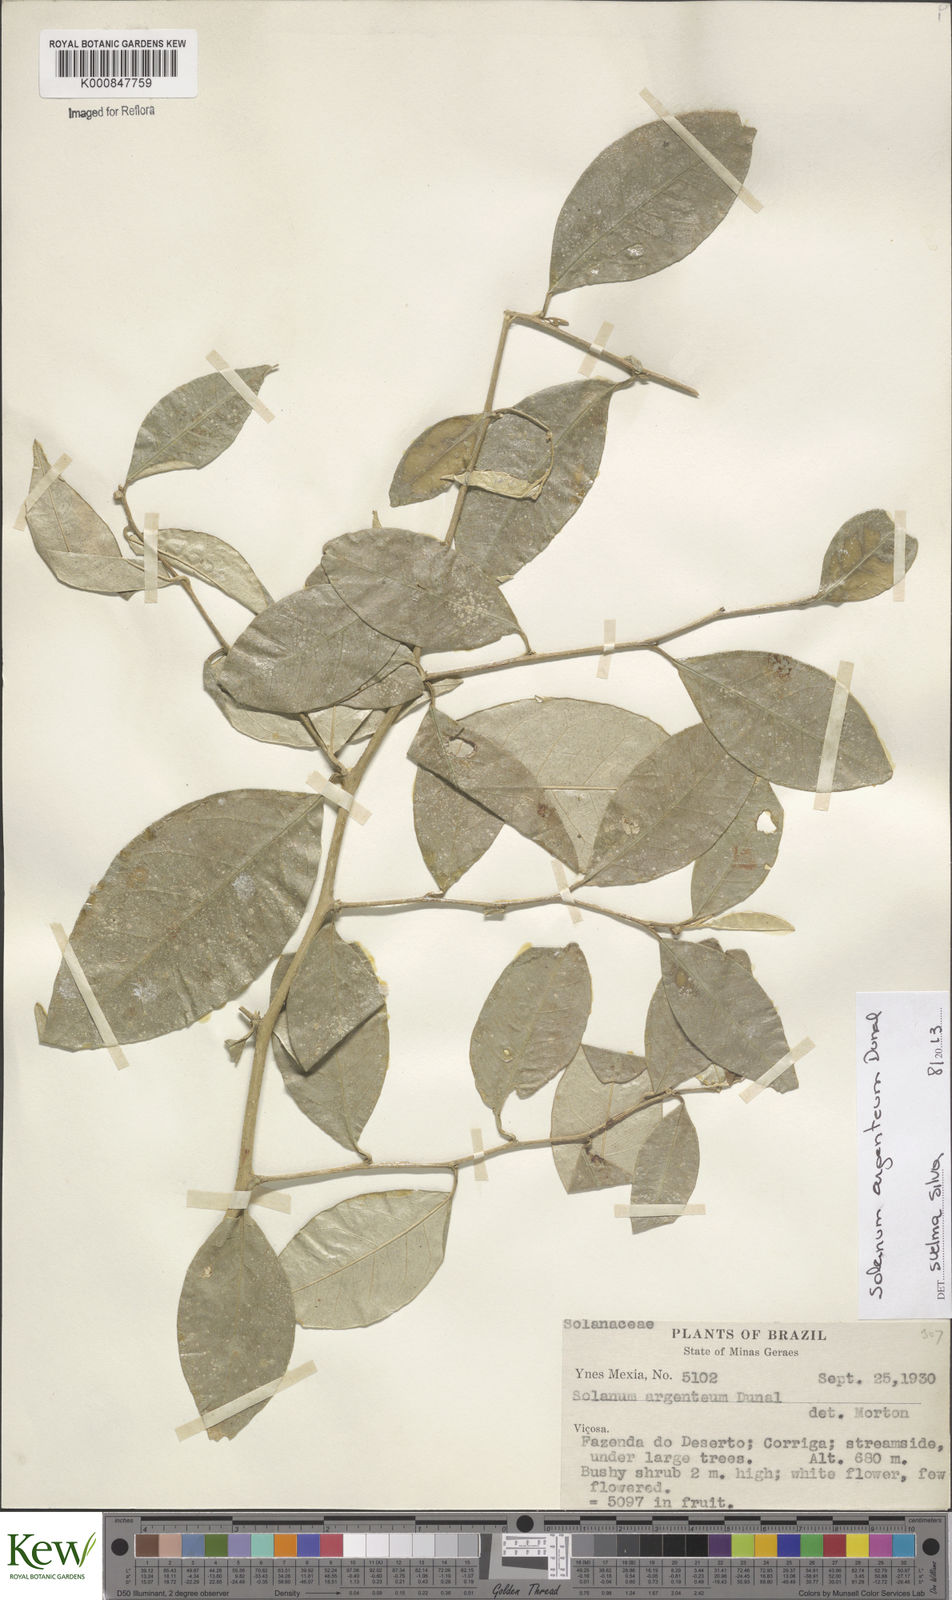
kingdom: Plantae
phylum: Tracheophyta
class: Magnoliopsida
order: Solanales
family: Solanaceae
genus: Solanum
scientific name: Solanum swartzianum
